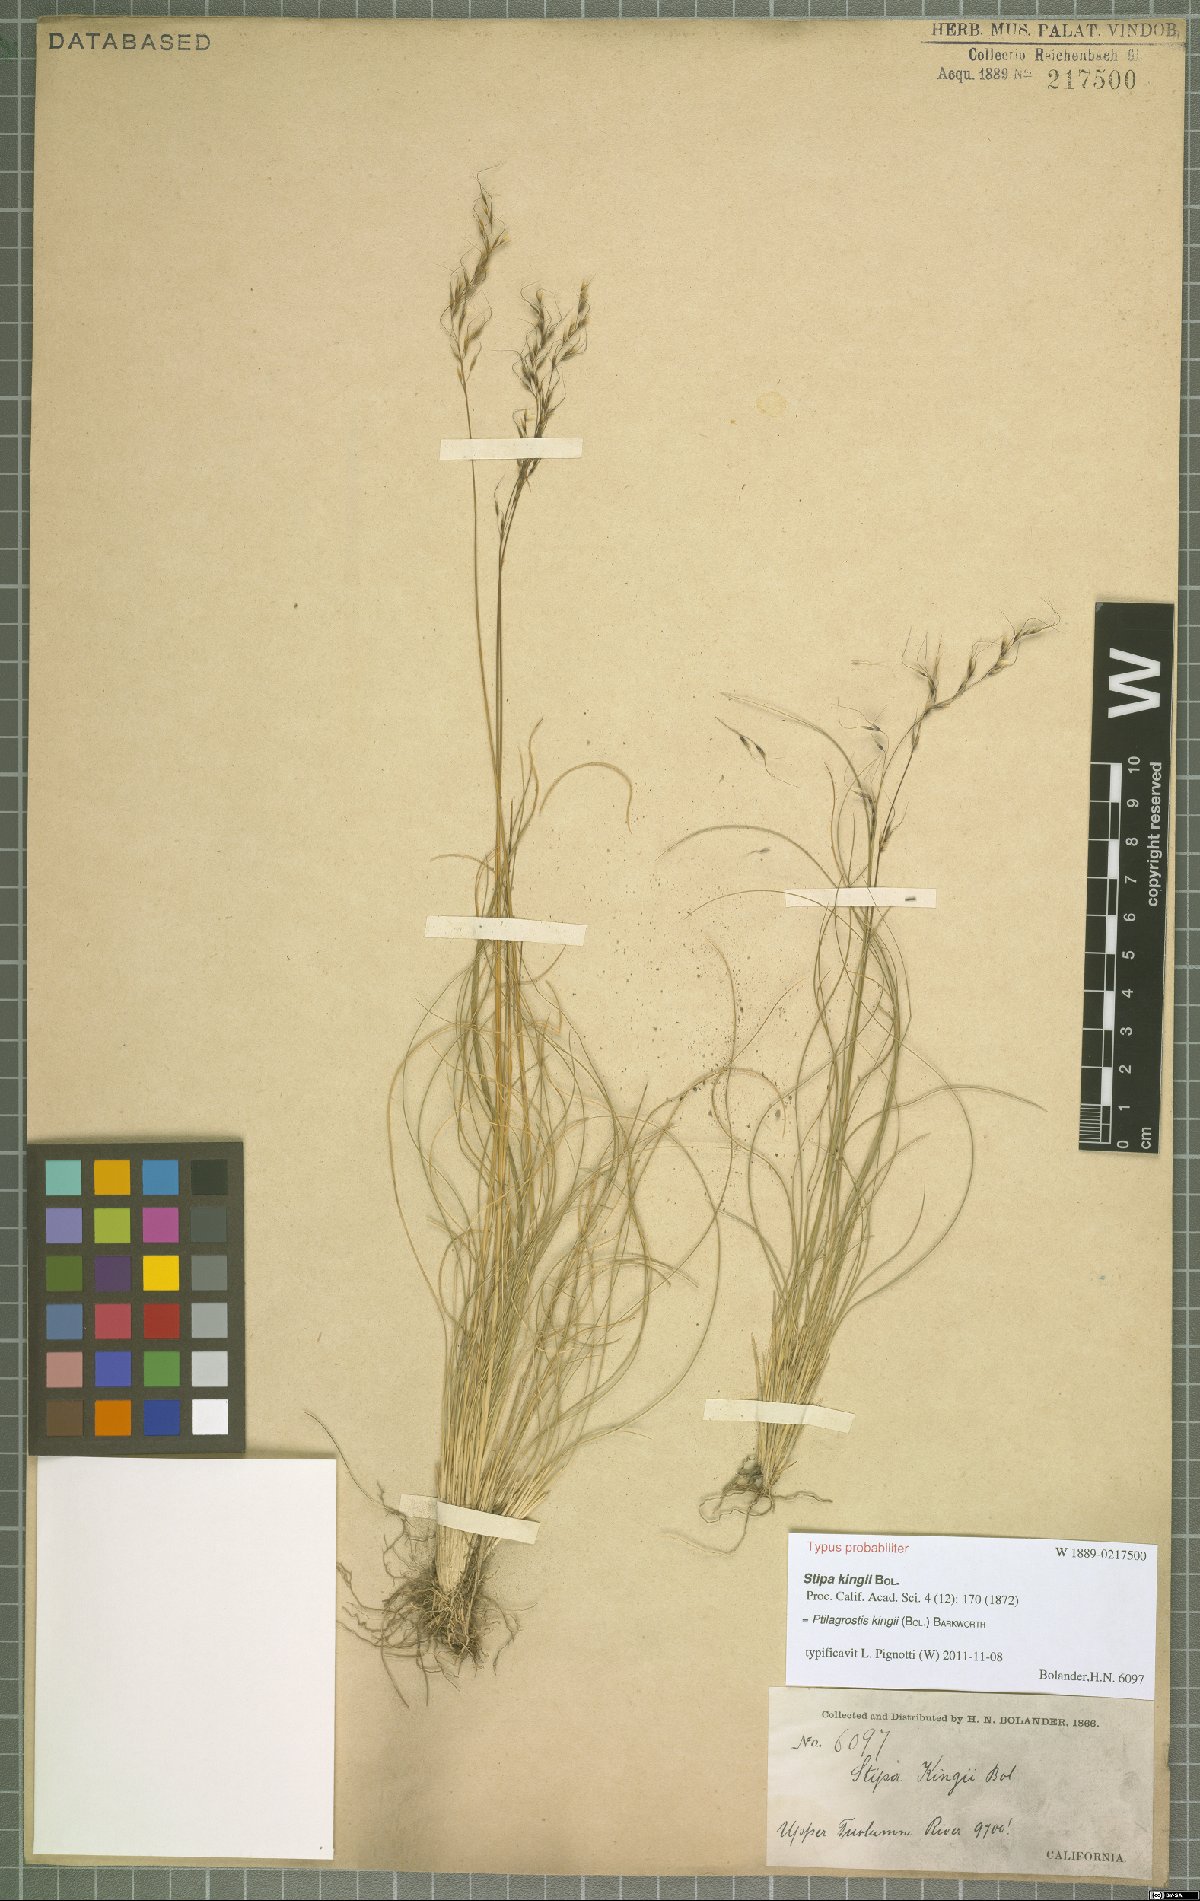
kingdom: Plantae
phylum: Tracheophyta
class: Liliopsida
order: Poales
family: Poaceae
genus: Ptilagrostiella
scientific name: Ptilagrostiella kingii
